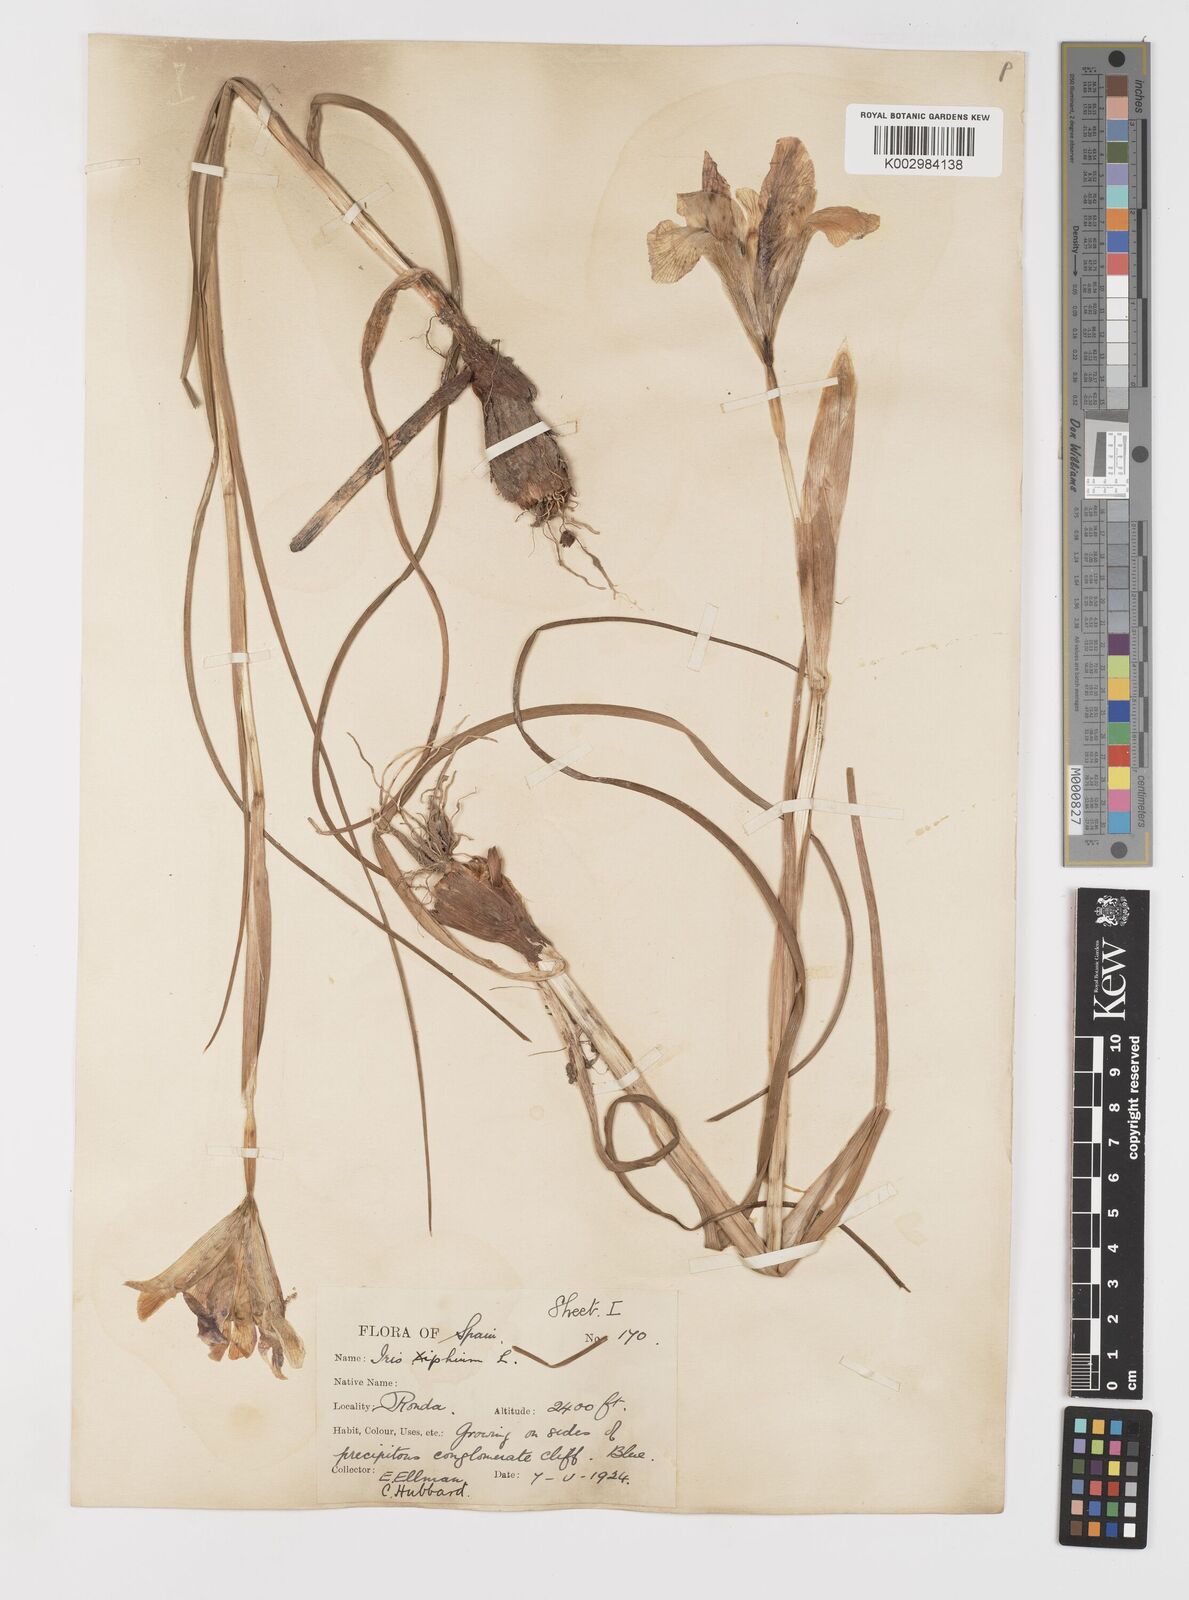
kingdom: Plantae
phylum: Tracheophyta
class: Liliopsida
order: Asparagales
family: Iridaceae
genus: Iris
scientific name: Iris xiphium
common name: Spanish iris
